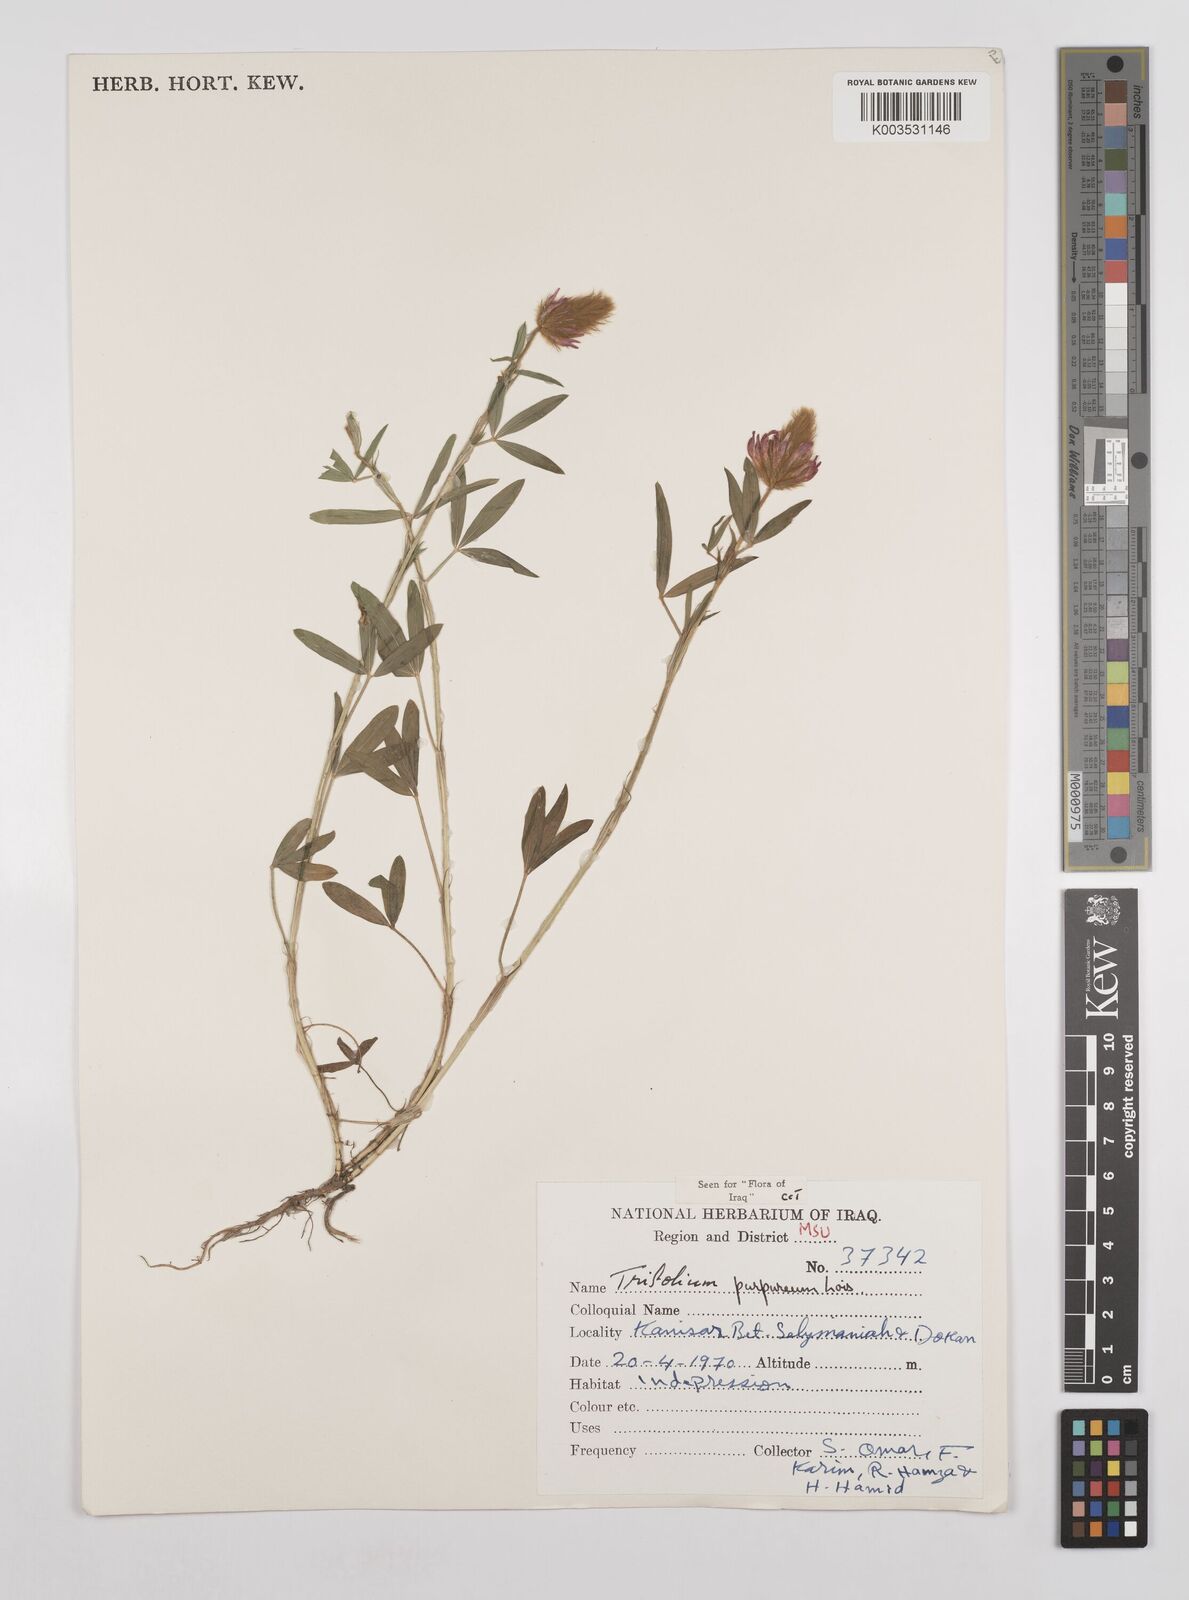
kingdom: Plantae
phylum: Tracheophyta
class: Magnoliopsida
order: Fabales
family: Fabaceae
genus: Trifolium
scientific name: Trifolium purpureum
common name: Purple clover
